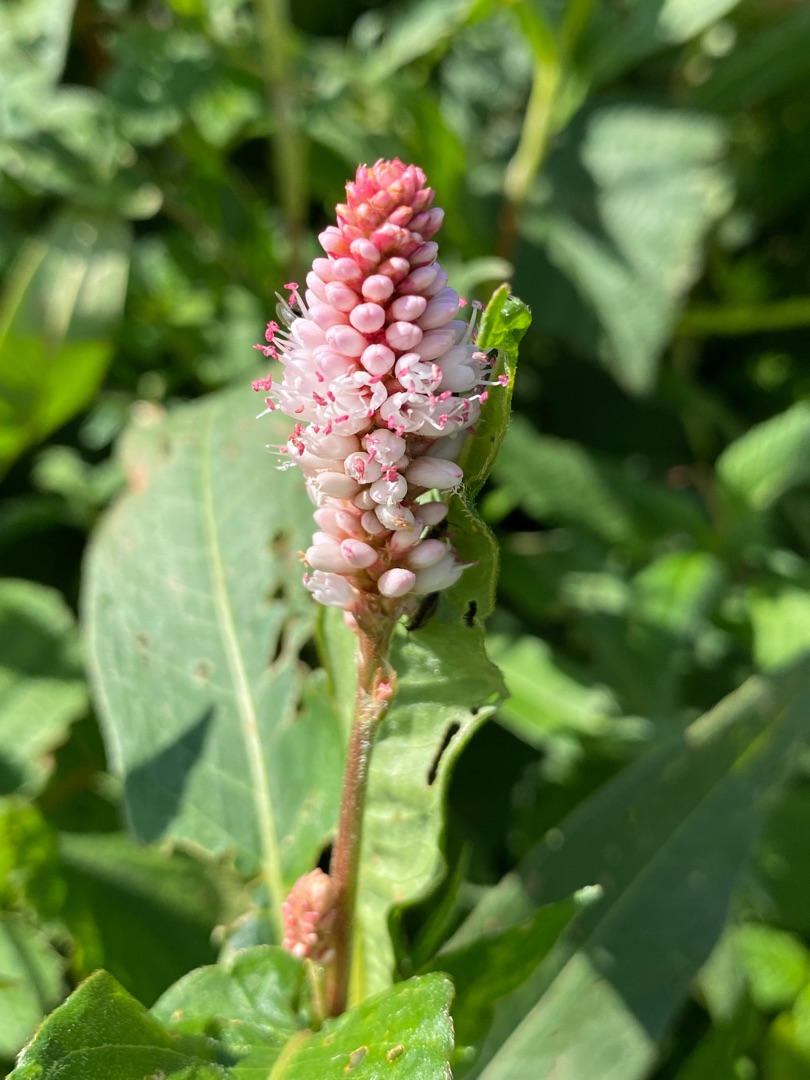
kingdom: Plantae
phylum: Tracheophyta
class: Magnoliopsida
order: Caryophyllales
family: Polygonaceae
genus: Persicaria
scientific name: Persicaria amphibia
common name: Vand-pileurt
